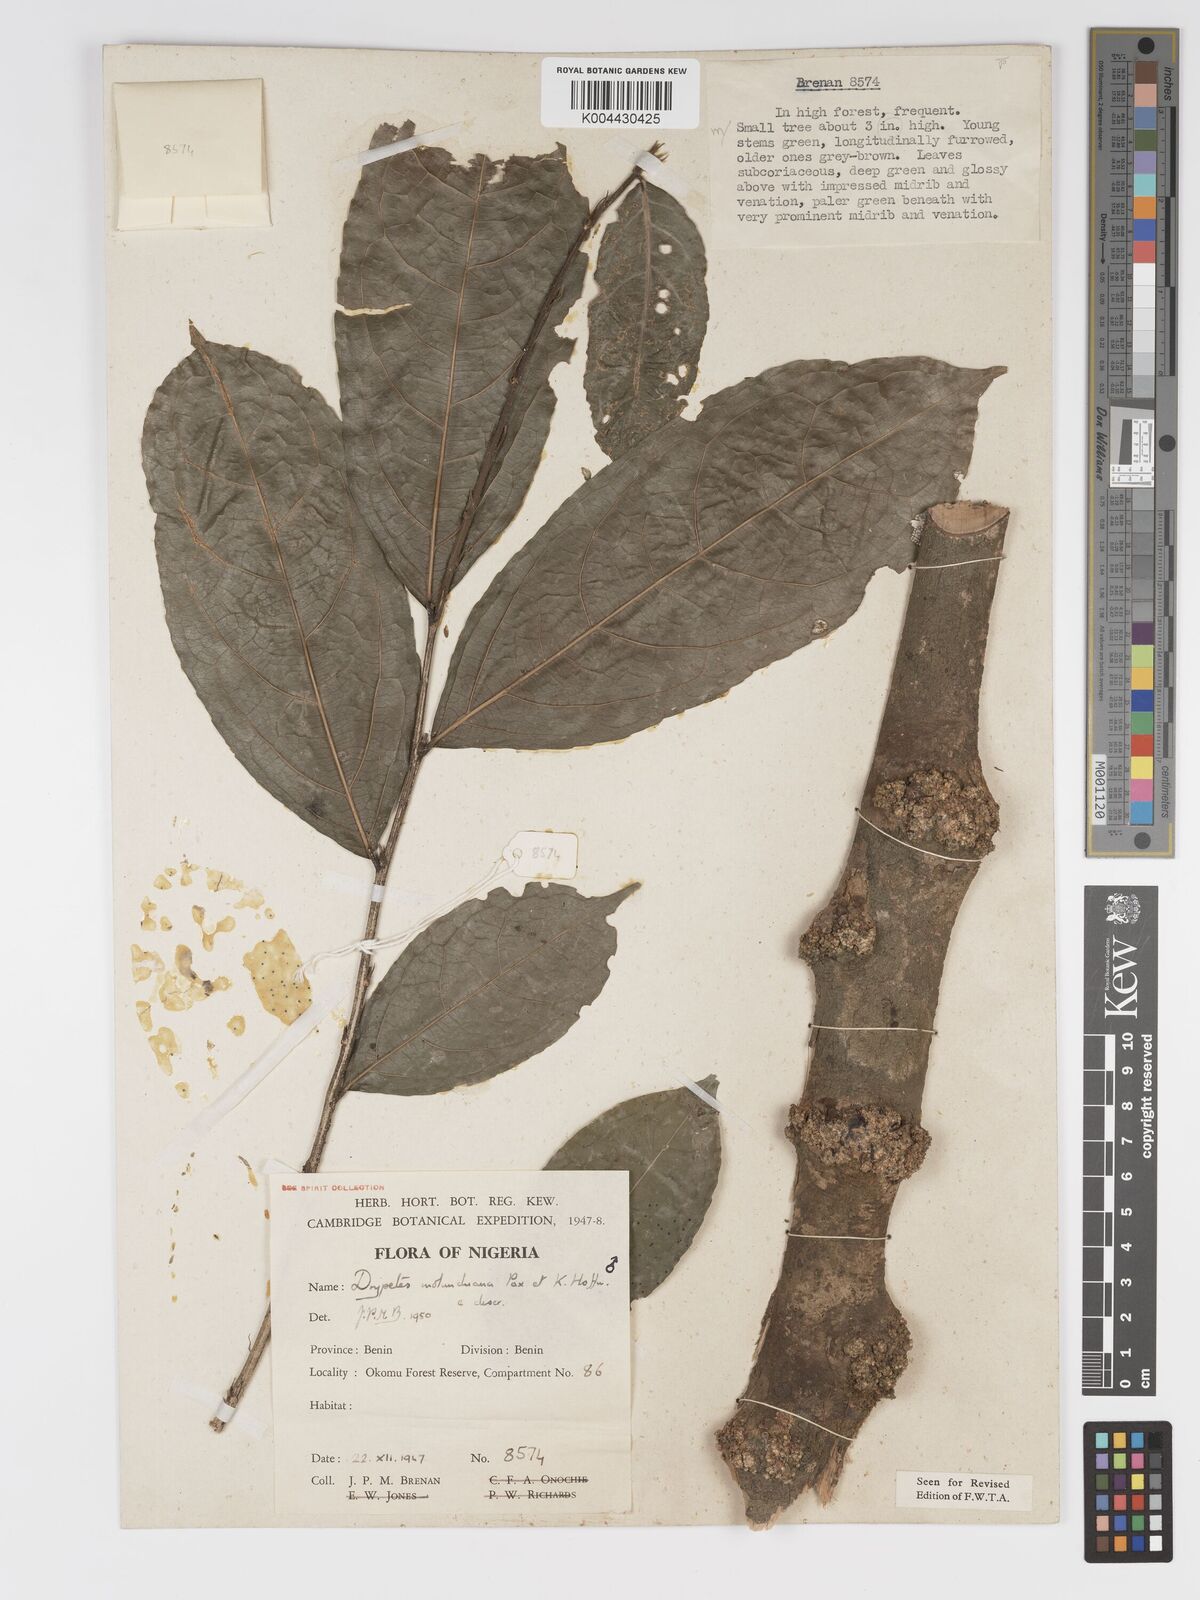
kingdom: Plantae
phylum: Tracheophyta
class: Magnoliopsida
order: Malpighiales
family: Putranjivaceae
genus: Drypetes
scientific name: Drypetes molunduana
